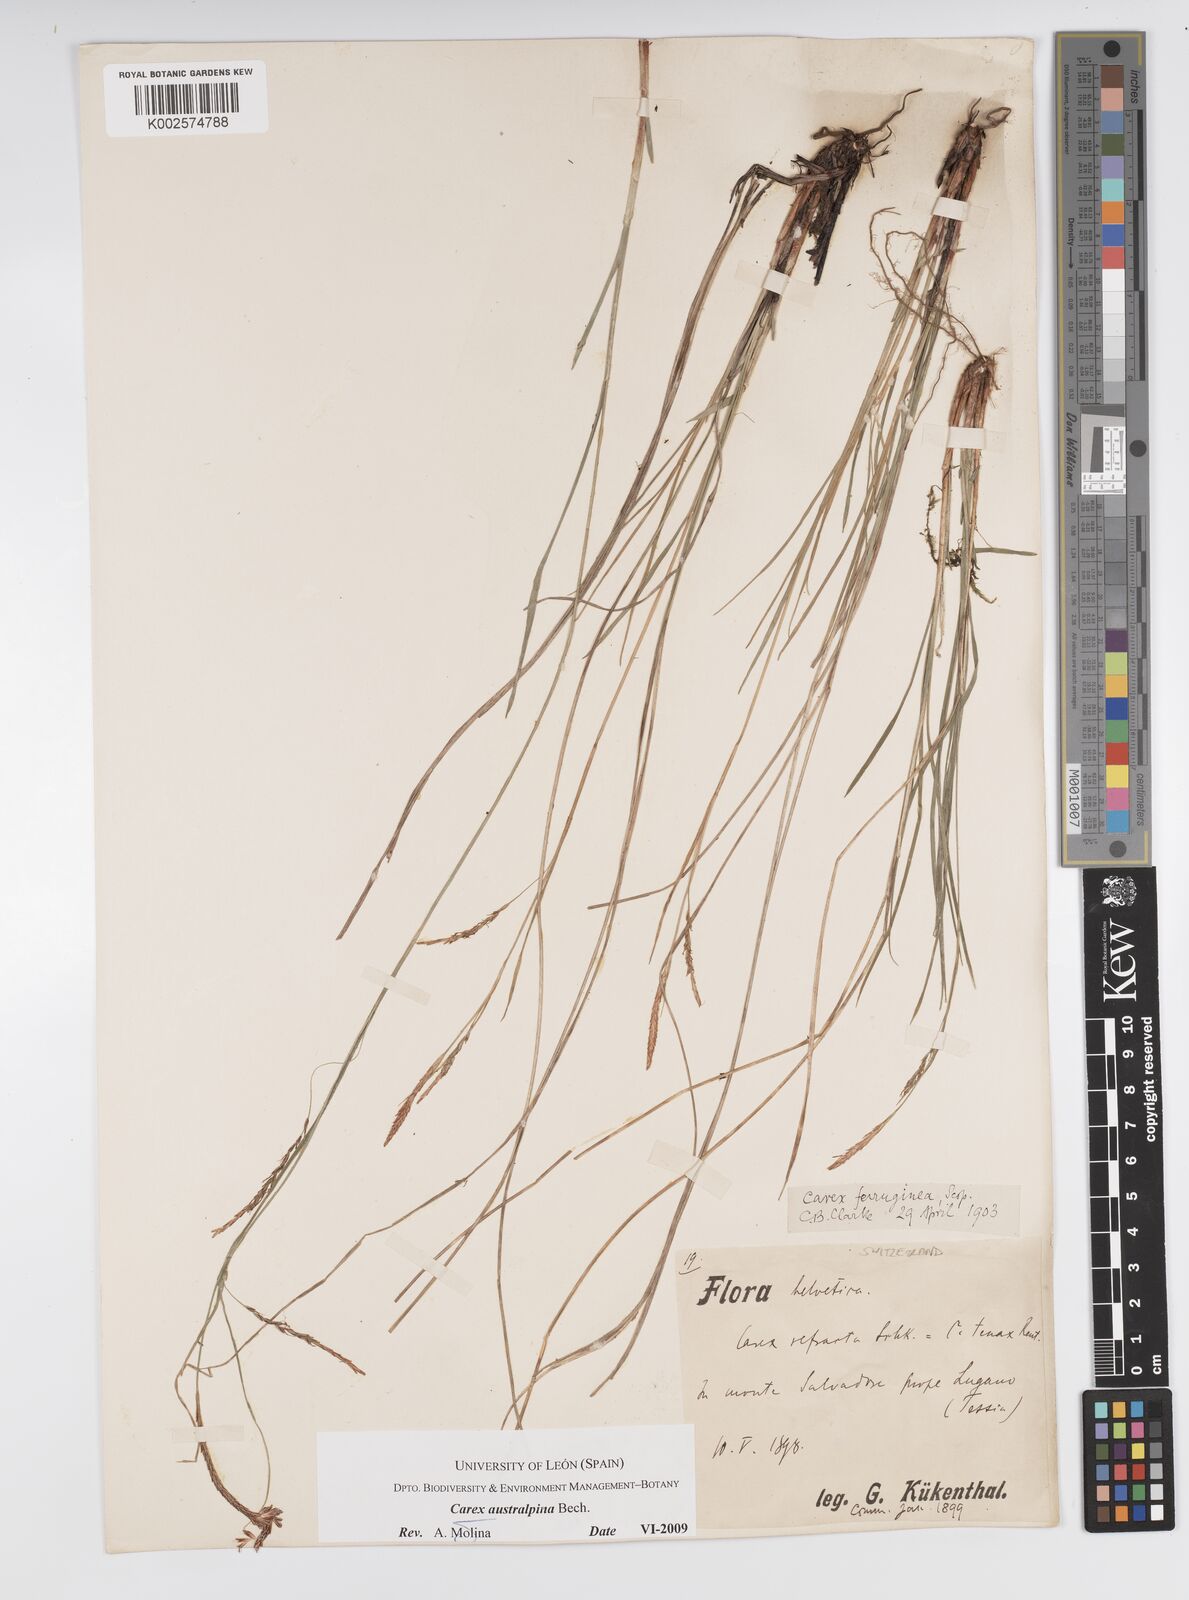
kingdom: Plantae
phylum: Tracheophyta
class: Liliopsida
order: Poales
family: Cyperaceae
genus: Carex
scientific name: Carex austroalpina
